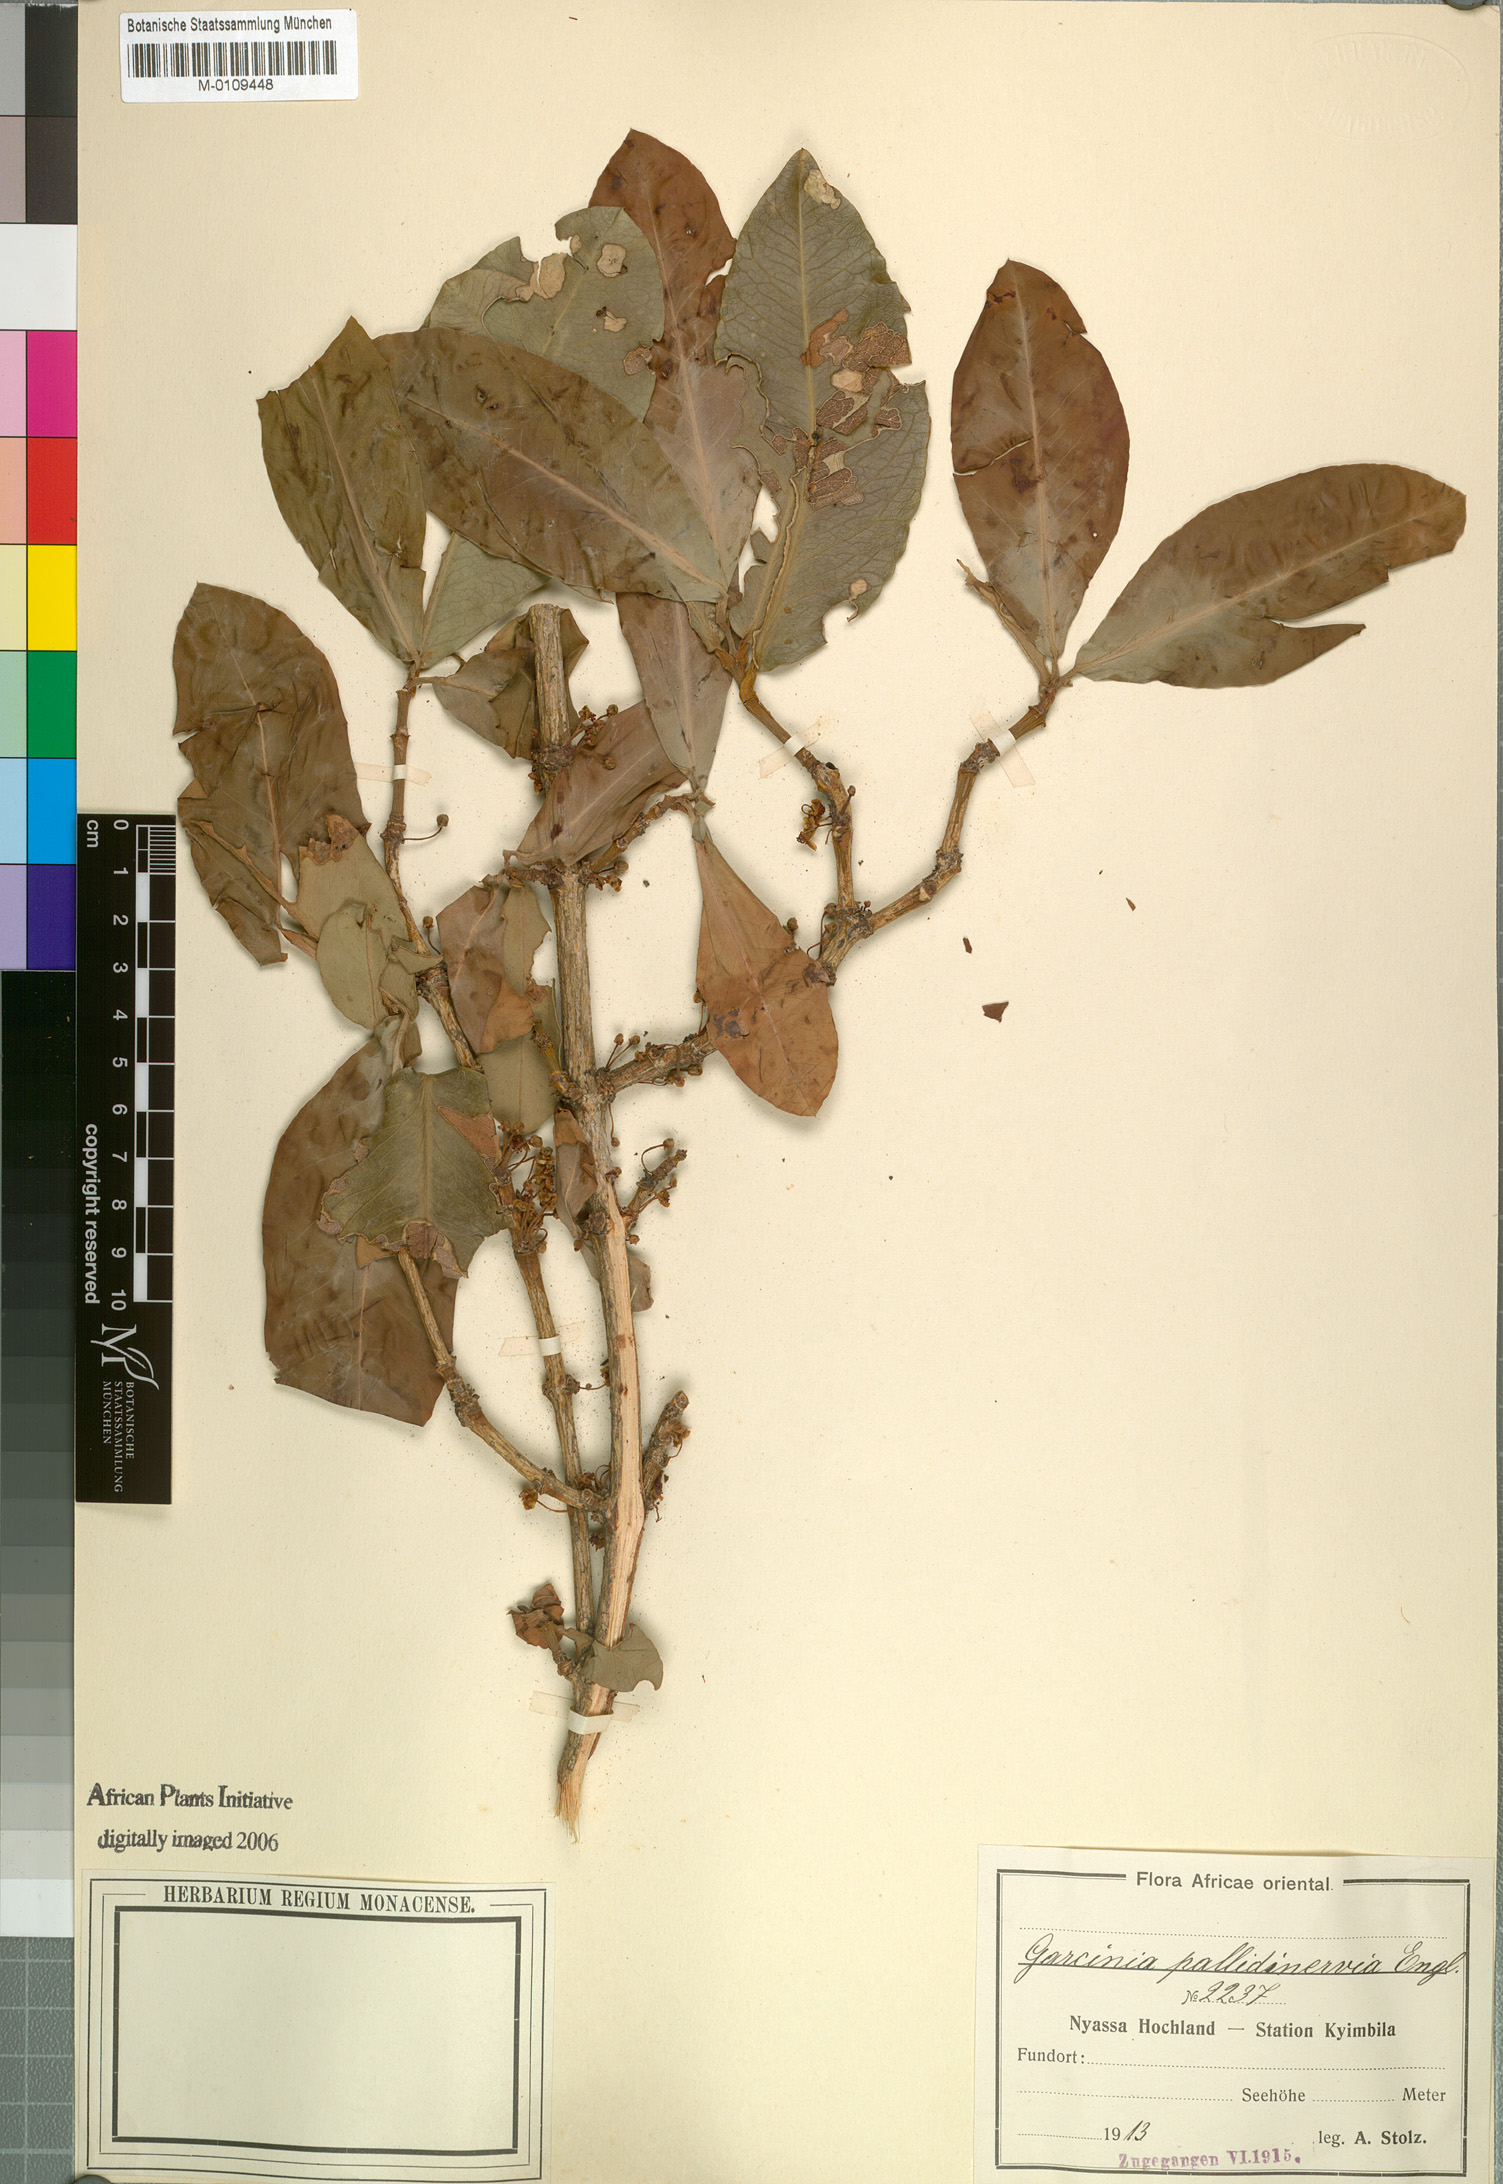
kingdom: Plantae
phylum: Tracheophyta
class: Magnoliopsida
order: Malpighiales
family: Clusiaceae
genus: Garcinia
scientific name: Garcinia livingstonei
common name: African mangosteen
